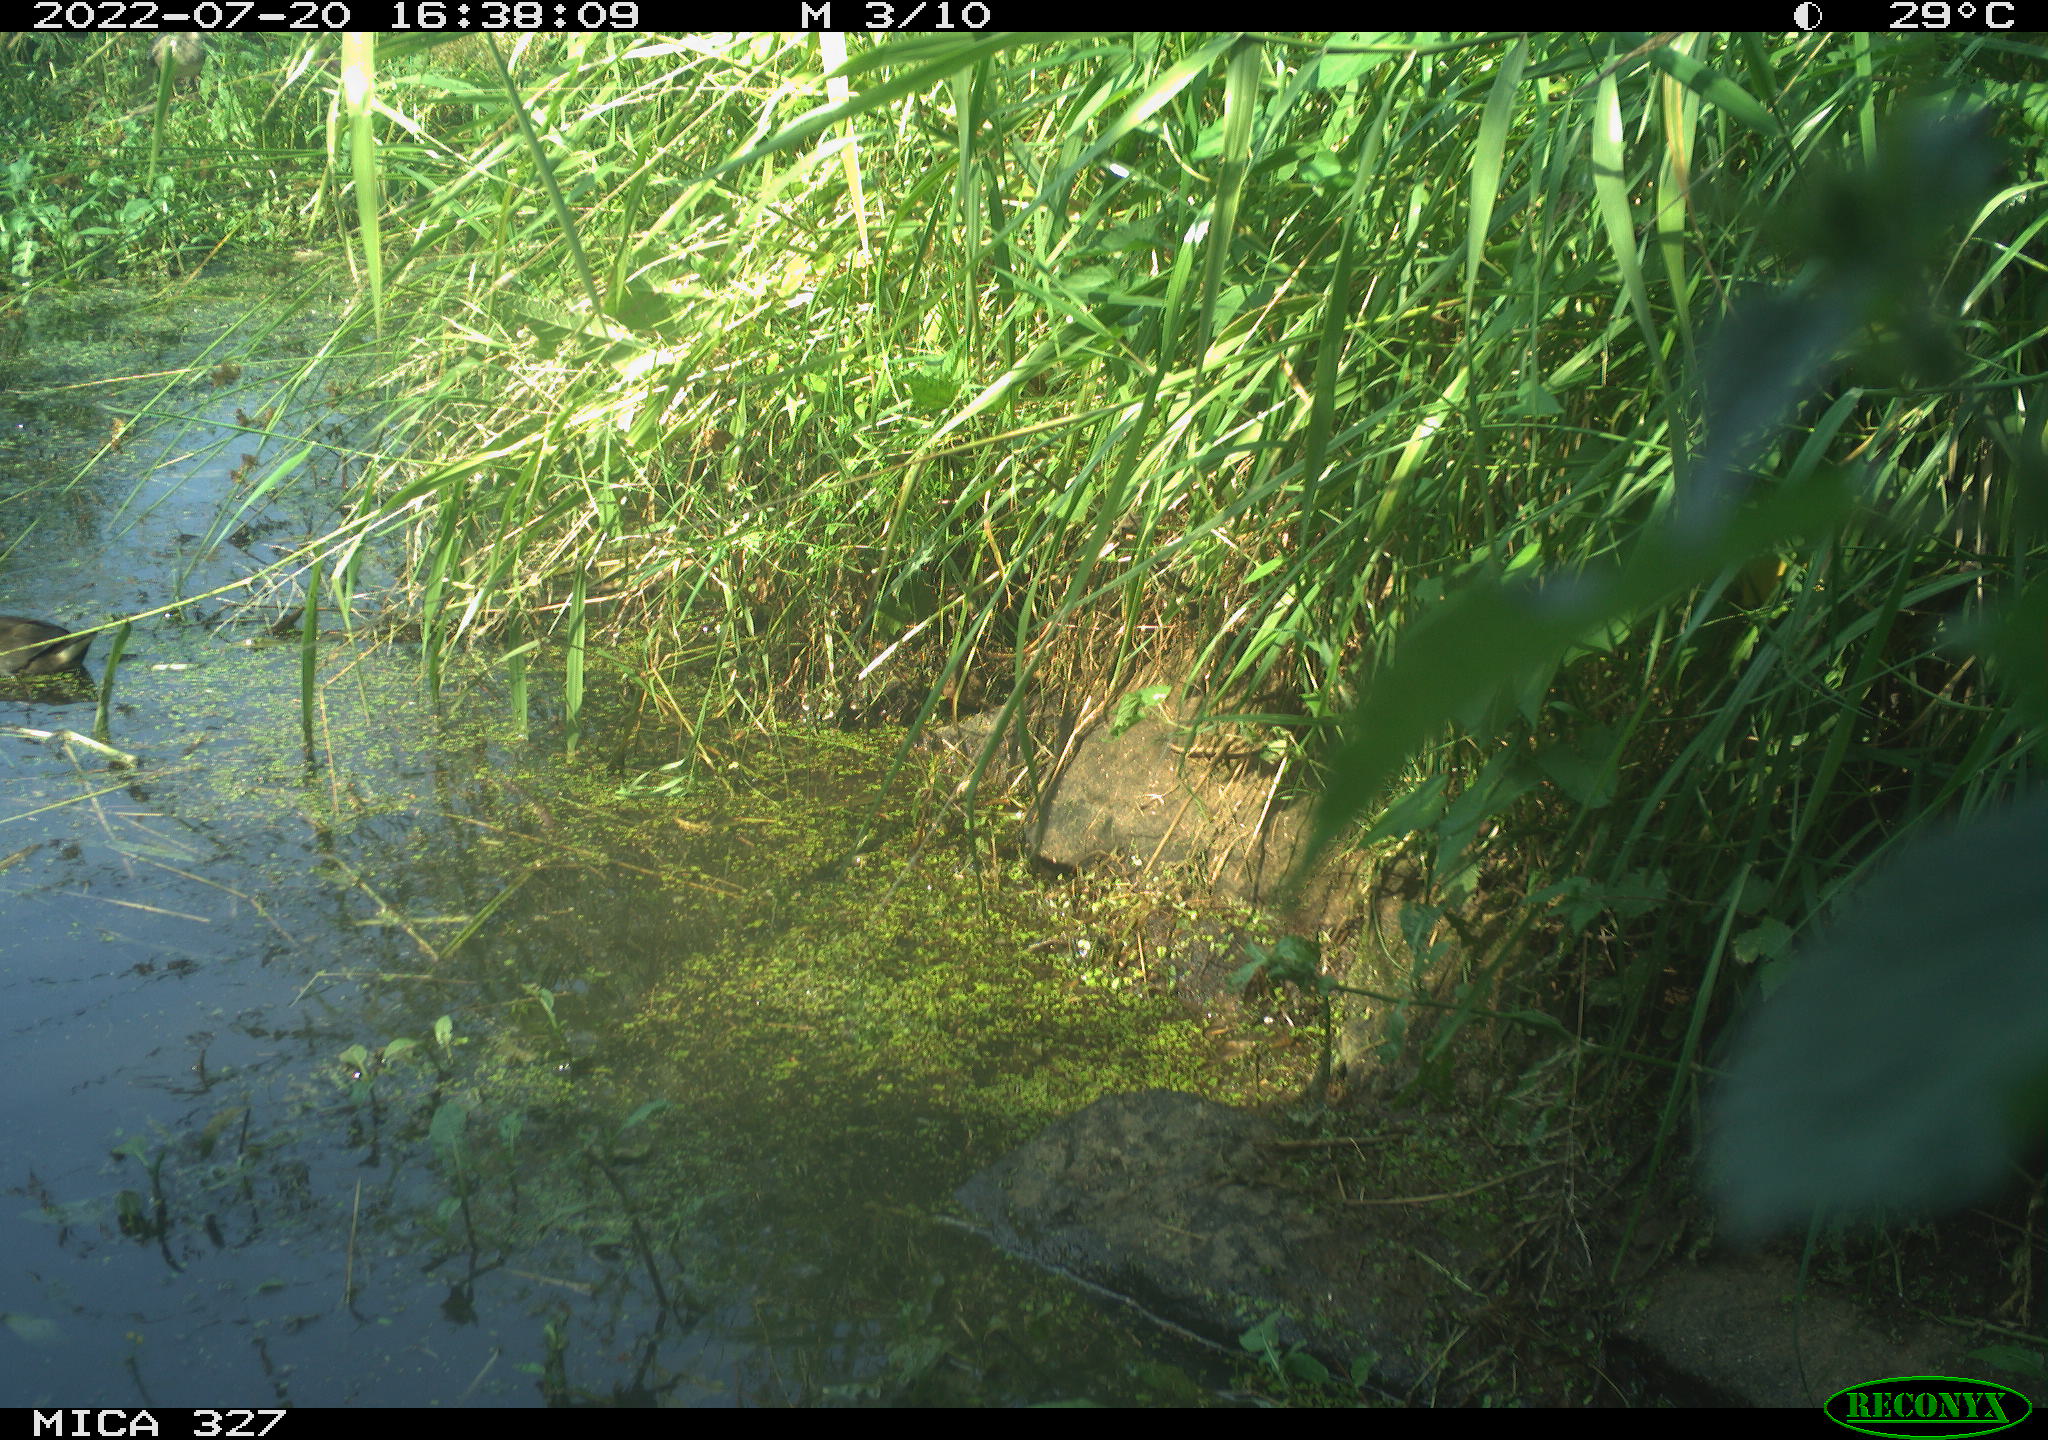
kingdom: Animalia
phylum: Chordata
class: Aves
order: Gruiformes
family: Rallidae
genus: Gallinula
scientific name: Gallinula chloropus
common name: Common moorhen
